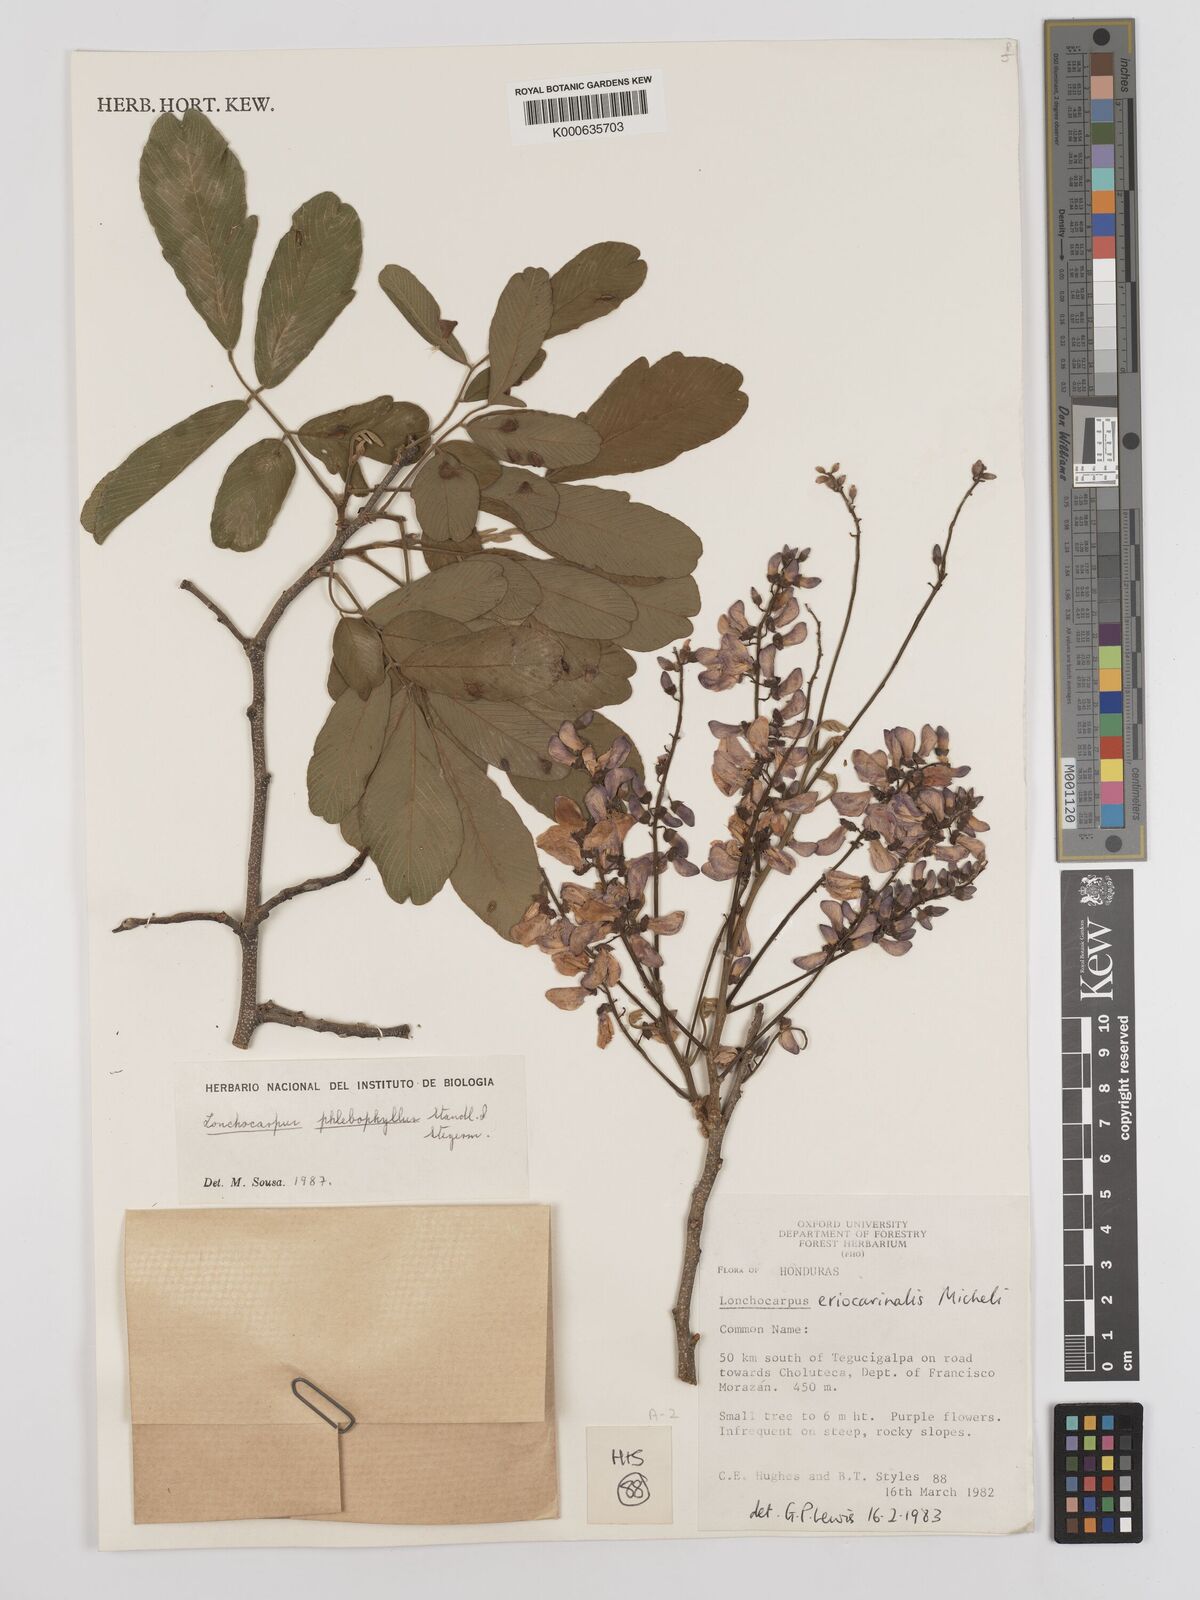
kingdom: Plantae
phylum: Tracheophyta
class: Magnoliopsida
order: Fabales
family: Fabaceae
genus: Lonchocarpus
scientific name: Lonchocarpus phlebophyllus
